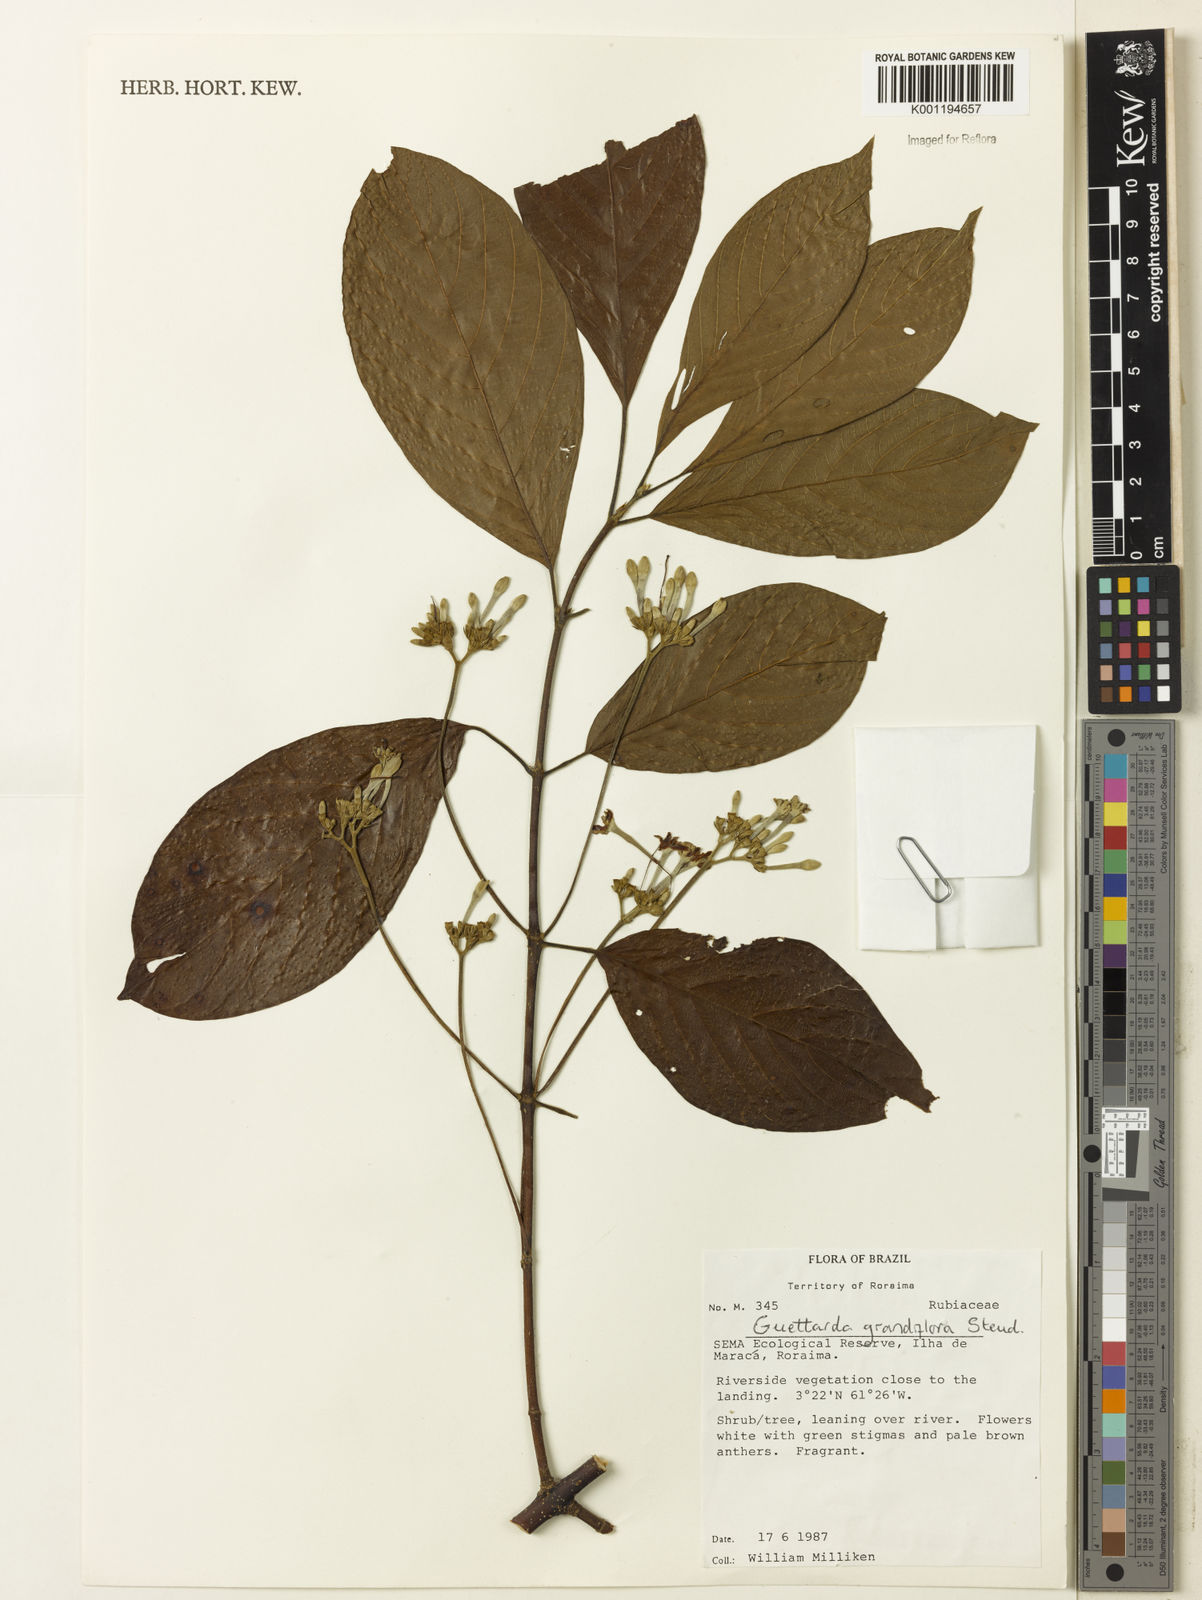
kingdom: Plantae
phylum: Tracheophyta
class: Magnoliopsida
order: Gentianales
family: Rubiaceae
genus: Guettarda
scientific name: Guettarda aromatica
